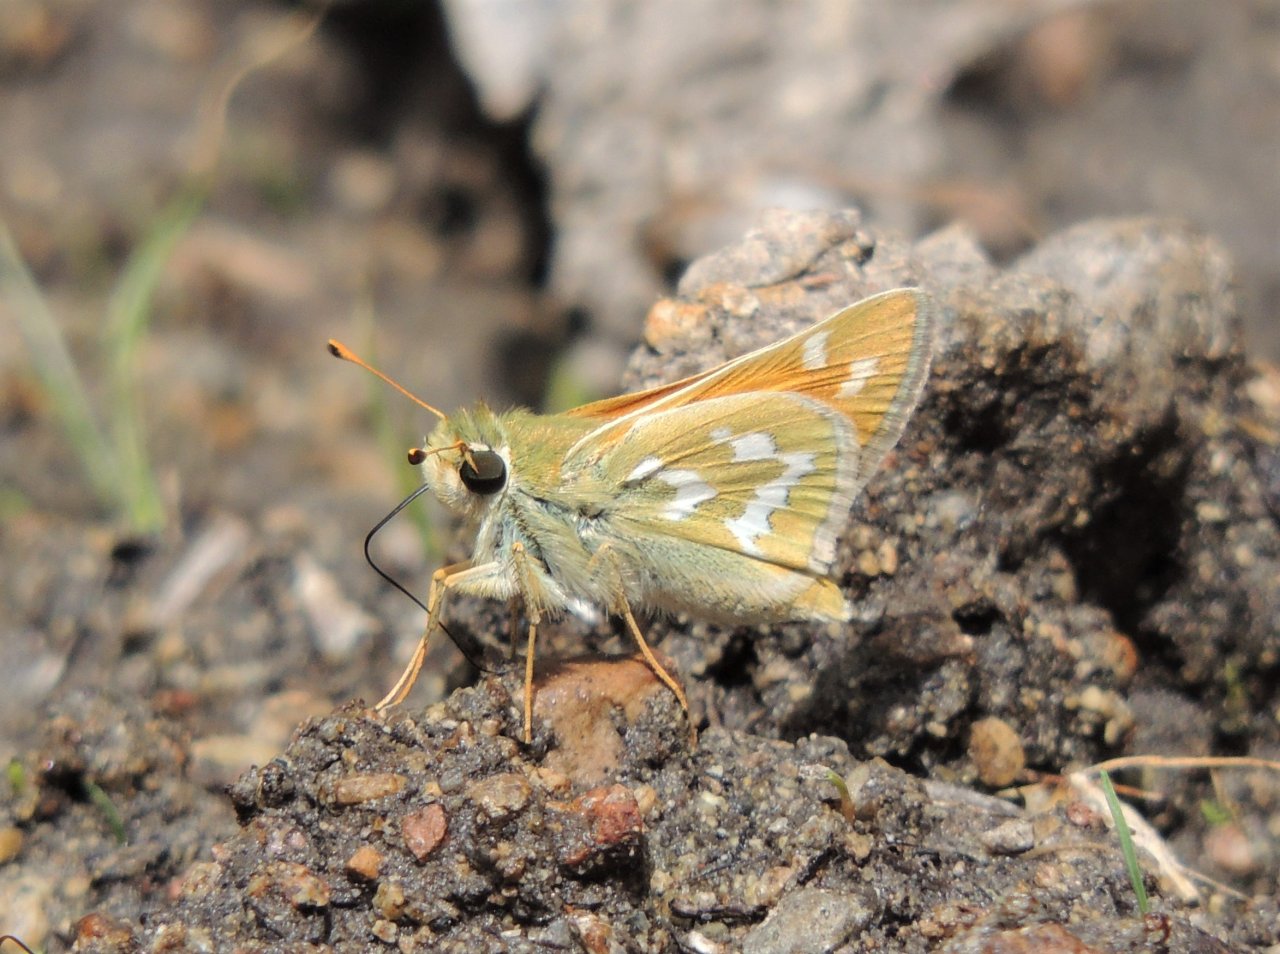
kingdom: Animalia
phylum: Arthropoda
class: Insecta
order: Lepidoptera
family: Hesperiidae
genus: Hesperia
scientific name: Hesperia comma
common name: Western Branded Skipper
